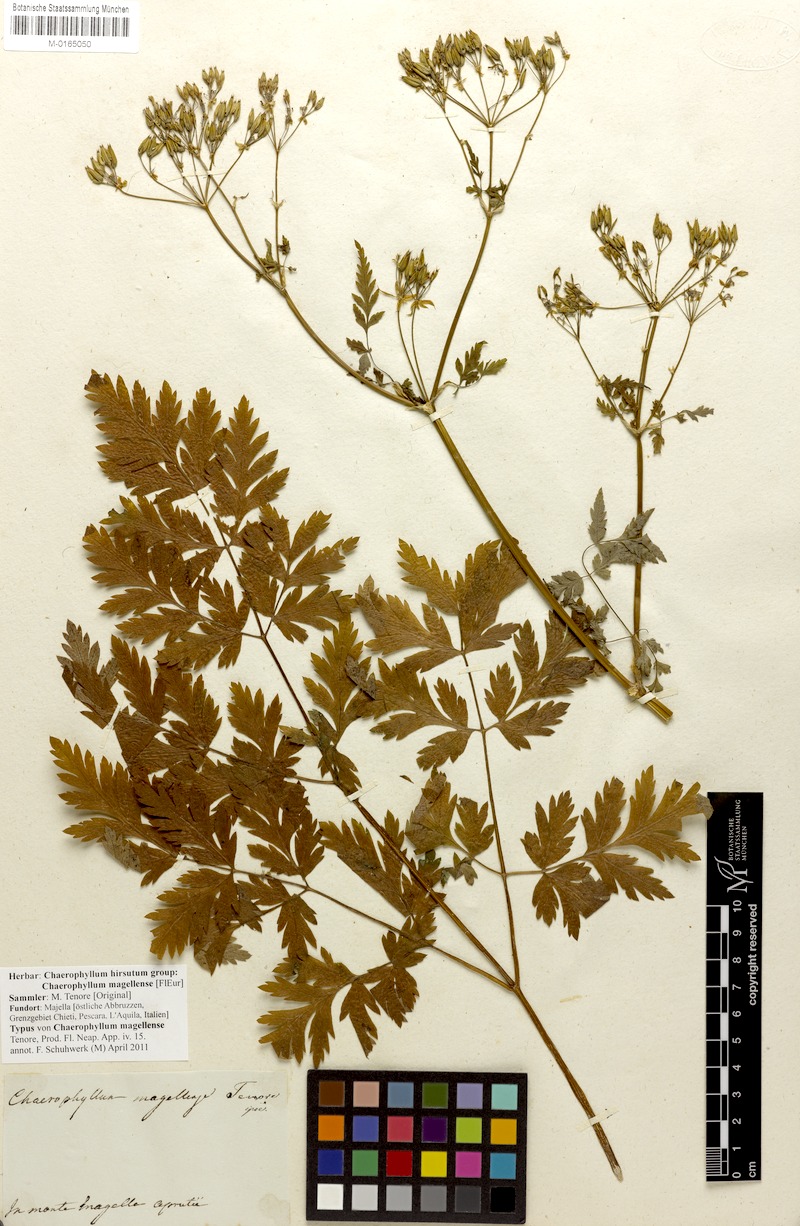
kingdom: Plantae
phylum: Tracheophyta
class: Magnoliopsida
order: Apiales
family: Apiaceae
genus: Chaerophyllum
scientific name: Chaerophyllum hirsutum
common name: Hairy chervil
